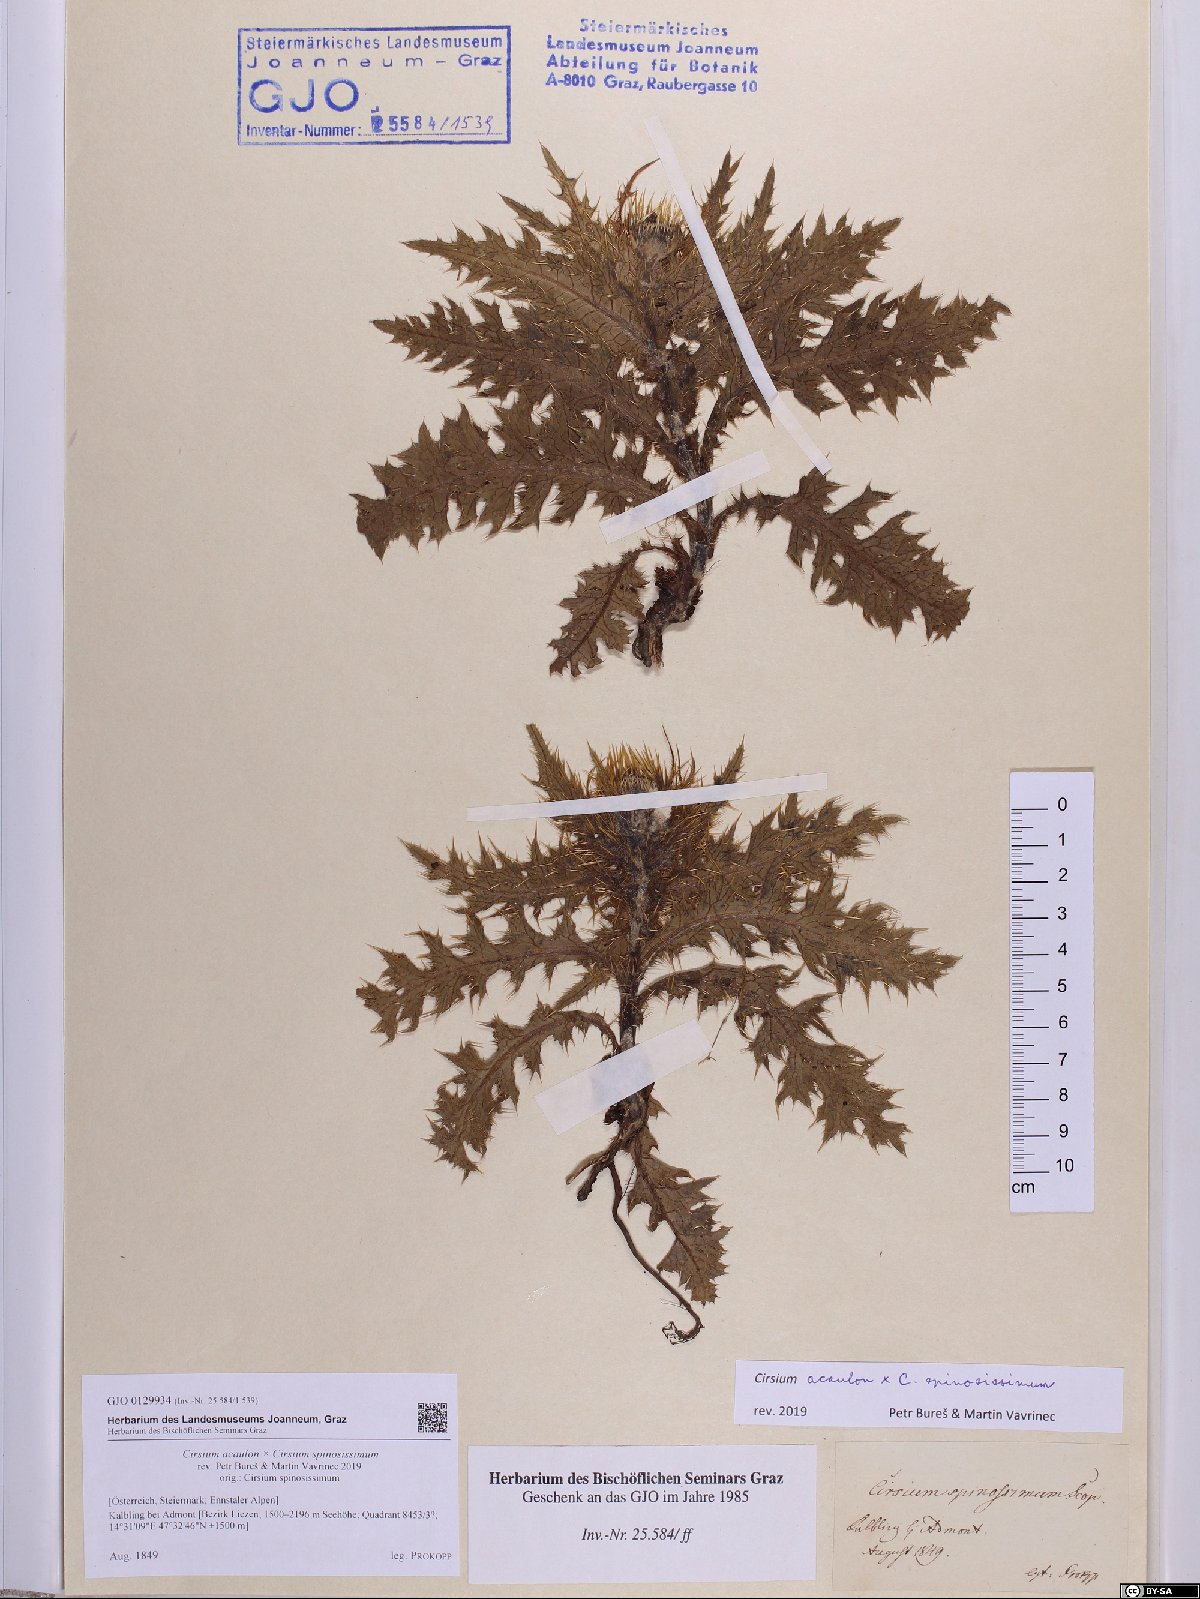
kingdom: Plantae
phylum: Tracheophyta
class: Magnoliopsida
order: Asterales
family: Asteraceae
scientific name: Asteraceae
